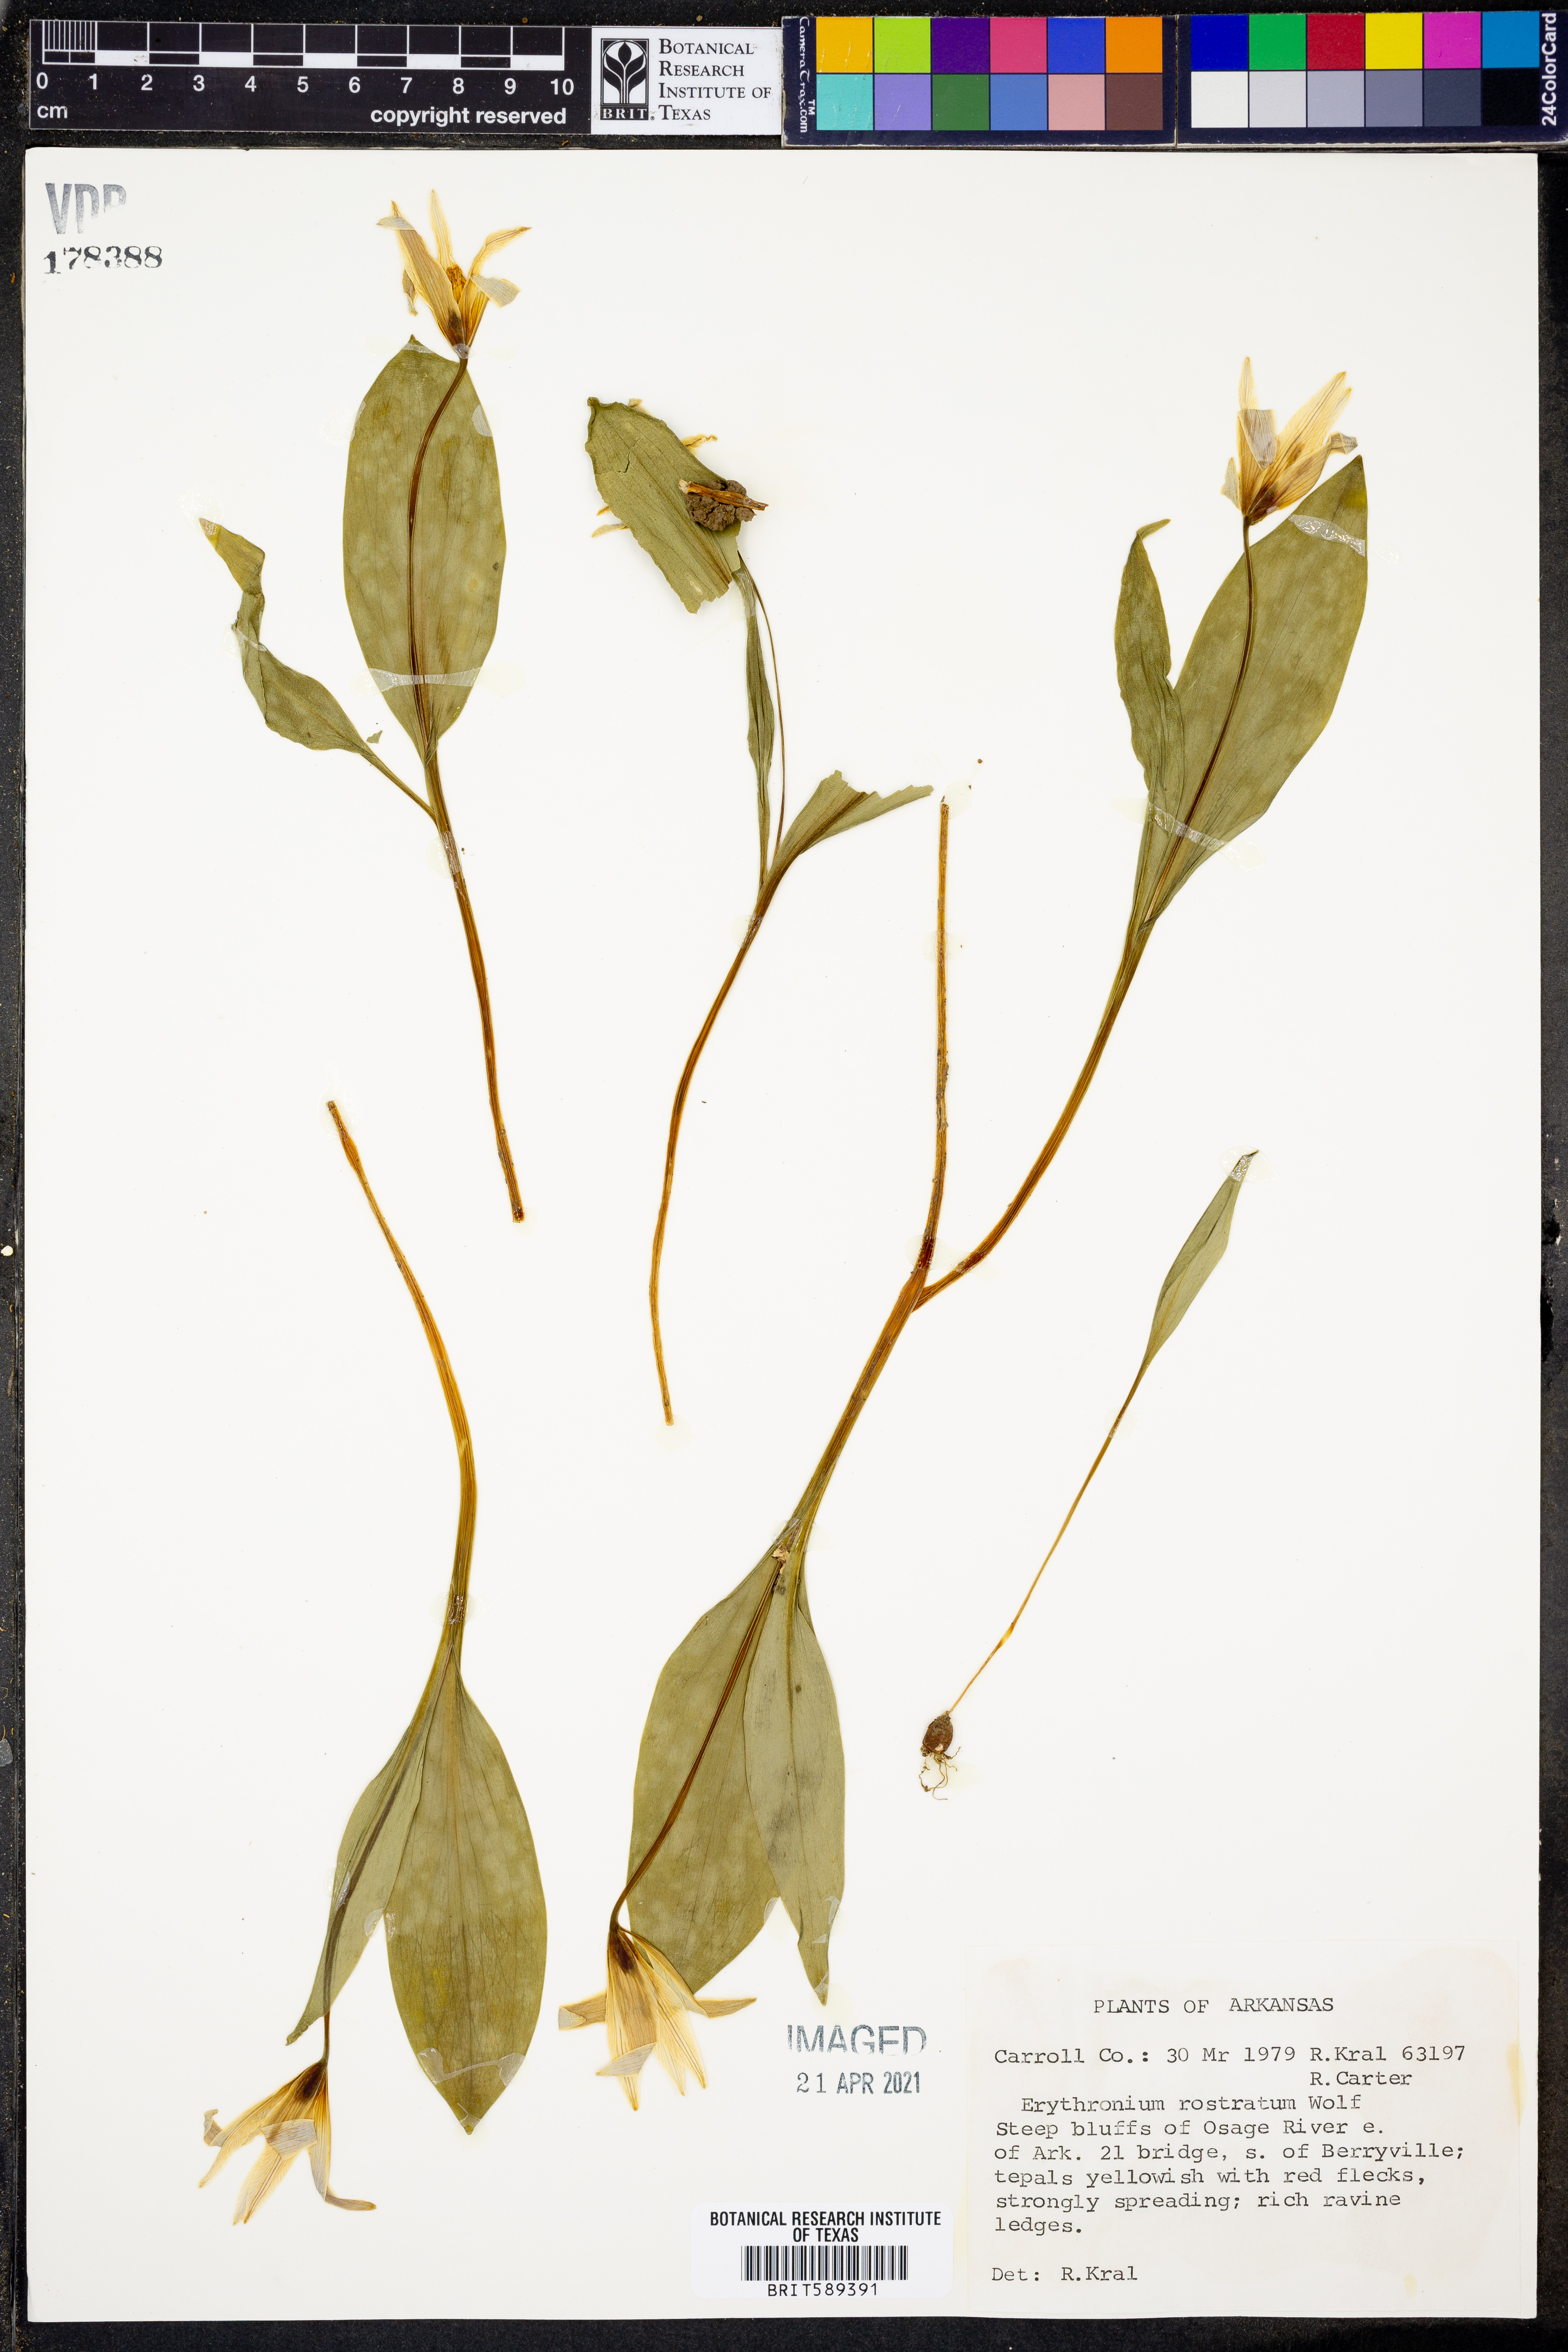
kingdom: Plantae
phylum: Tracheophyta
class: Liliopsida
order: Liliales
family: Liliaceae
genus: Erythronium
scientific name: Erythronium rostratum
